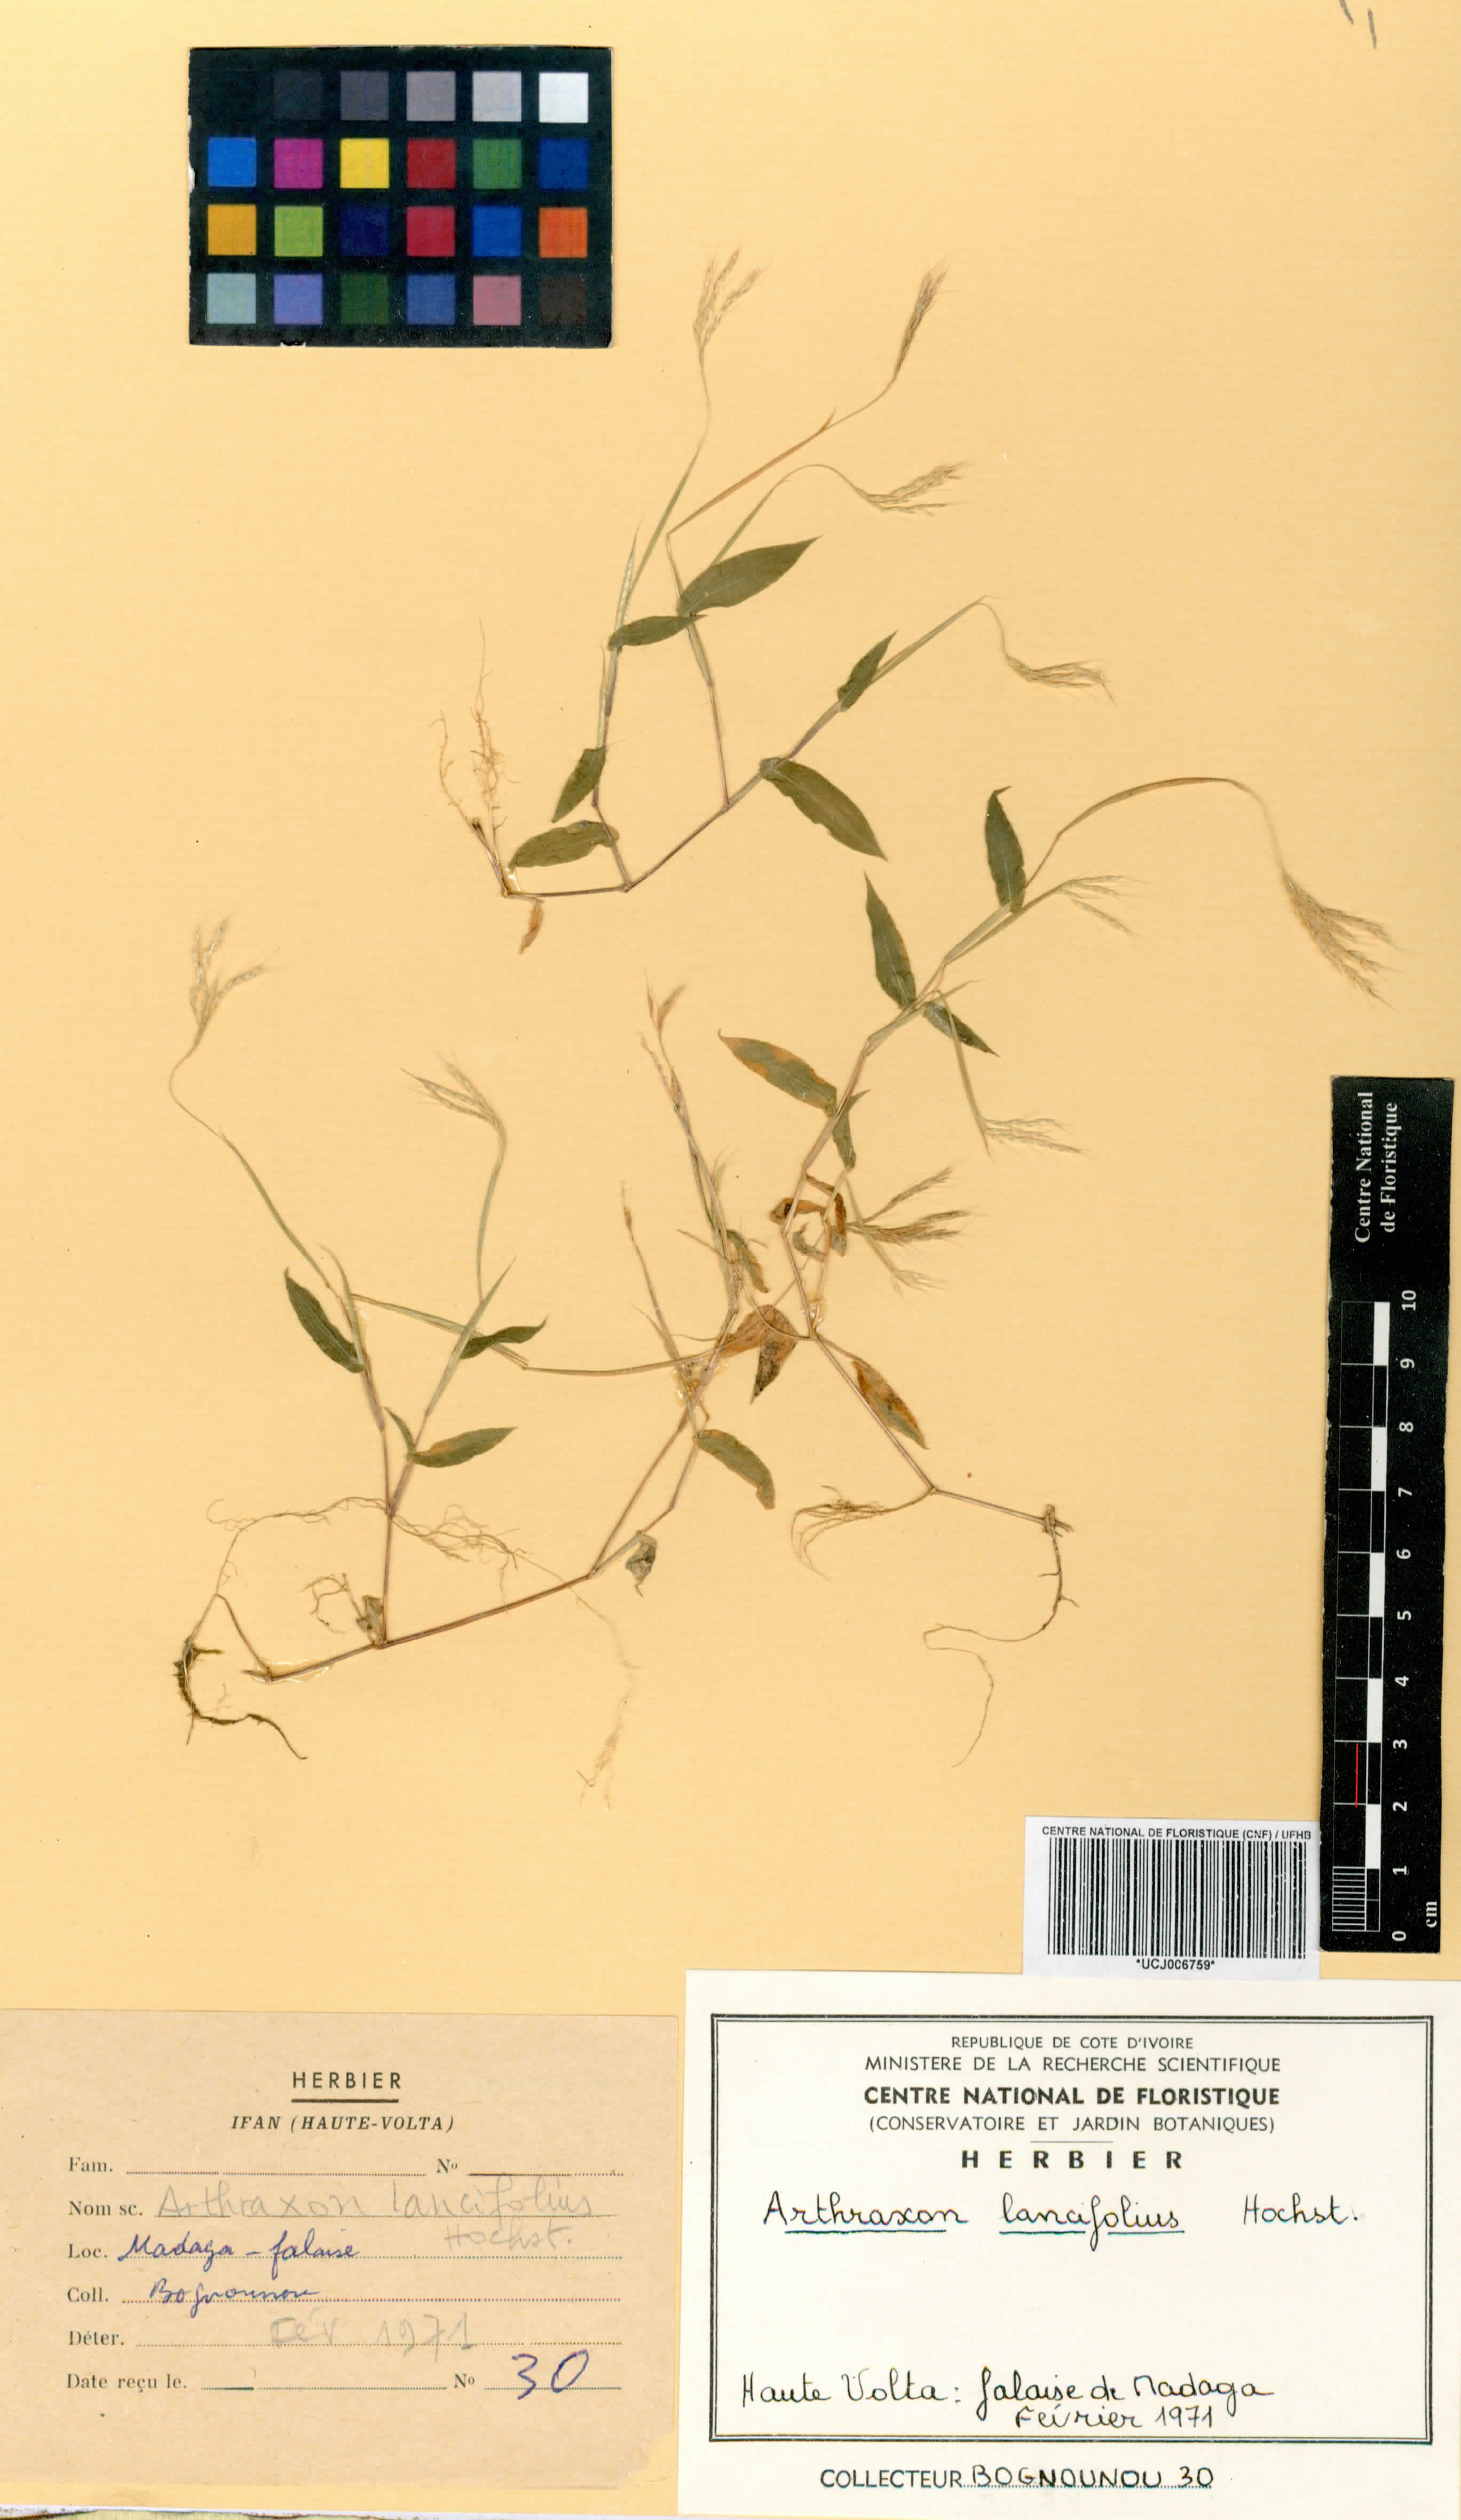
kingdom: Plantae
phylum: Tracheophyta
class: Liliopsida
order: Poales
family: Poaceae
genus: Arthraxon
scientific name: Arthraxon lancifolius
